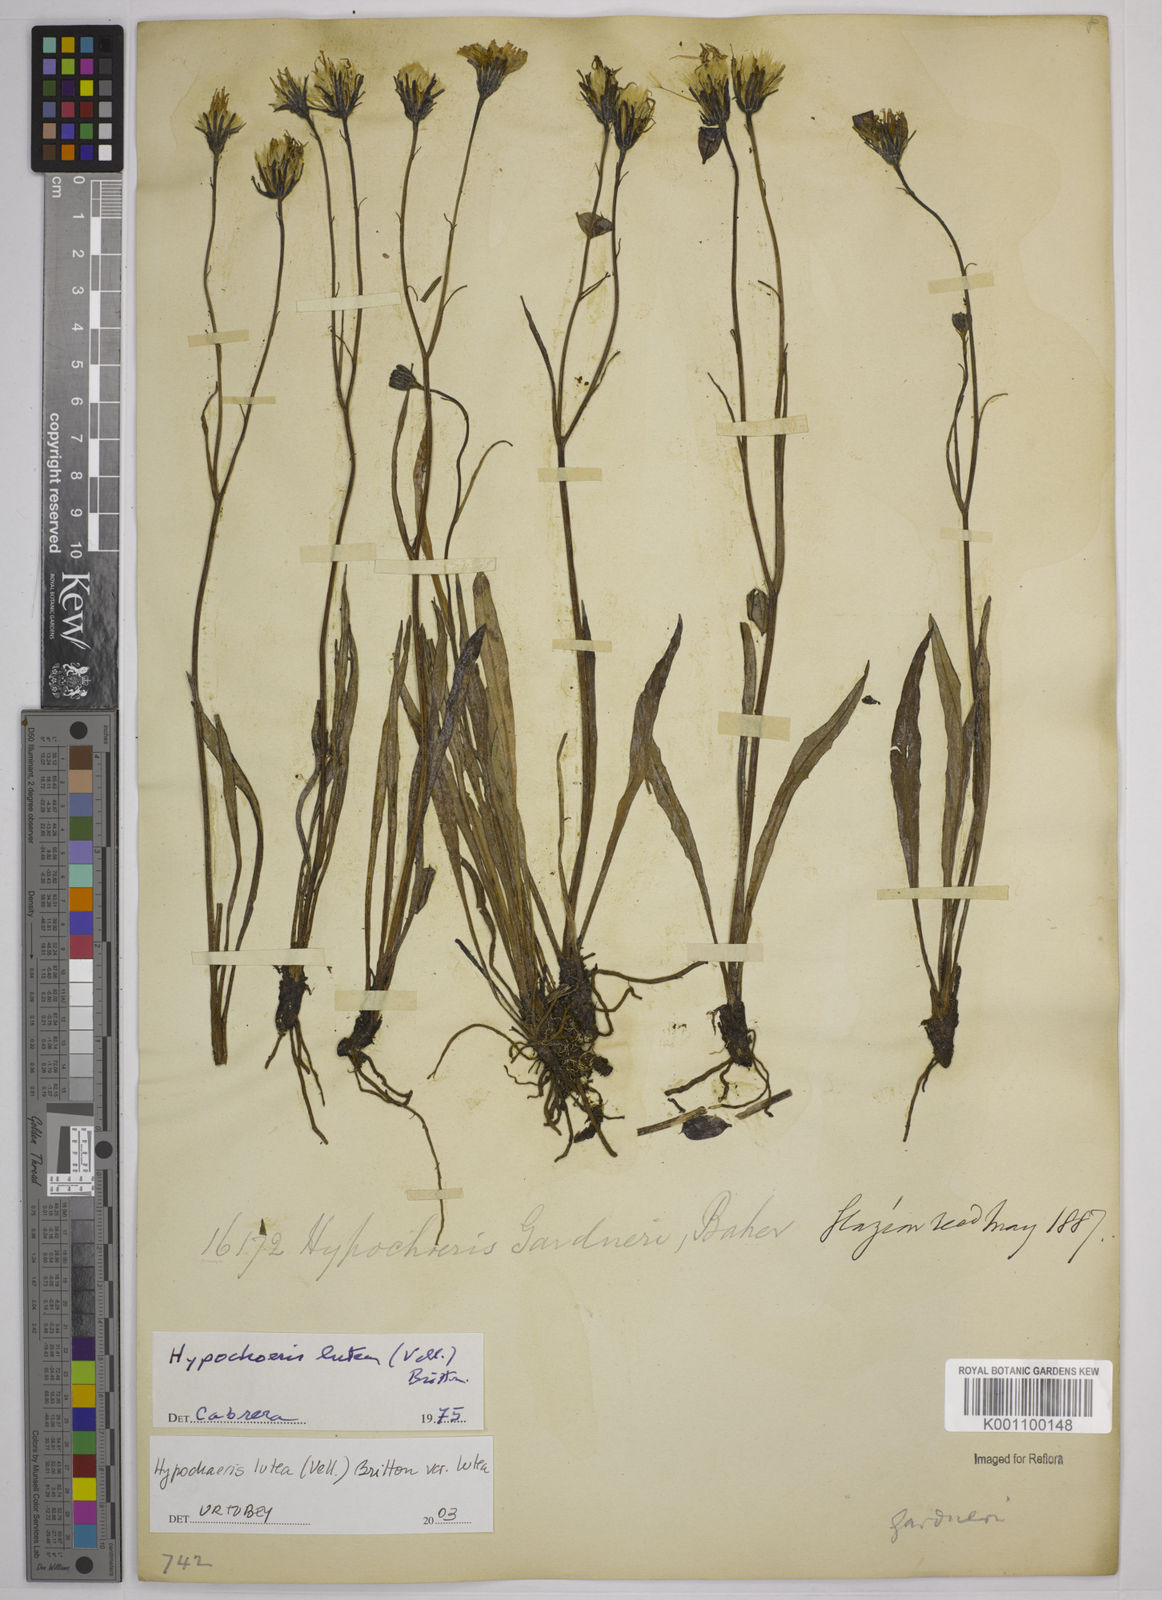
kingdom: Plantae
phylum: Tracheophyta
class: Magnoliopsida
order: Asterales
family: Asteraceae
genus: Hypochaeris
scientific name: Hypochaeris lutea
